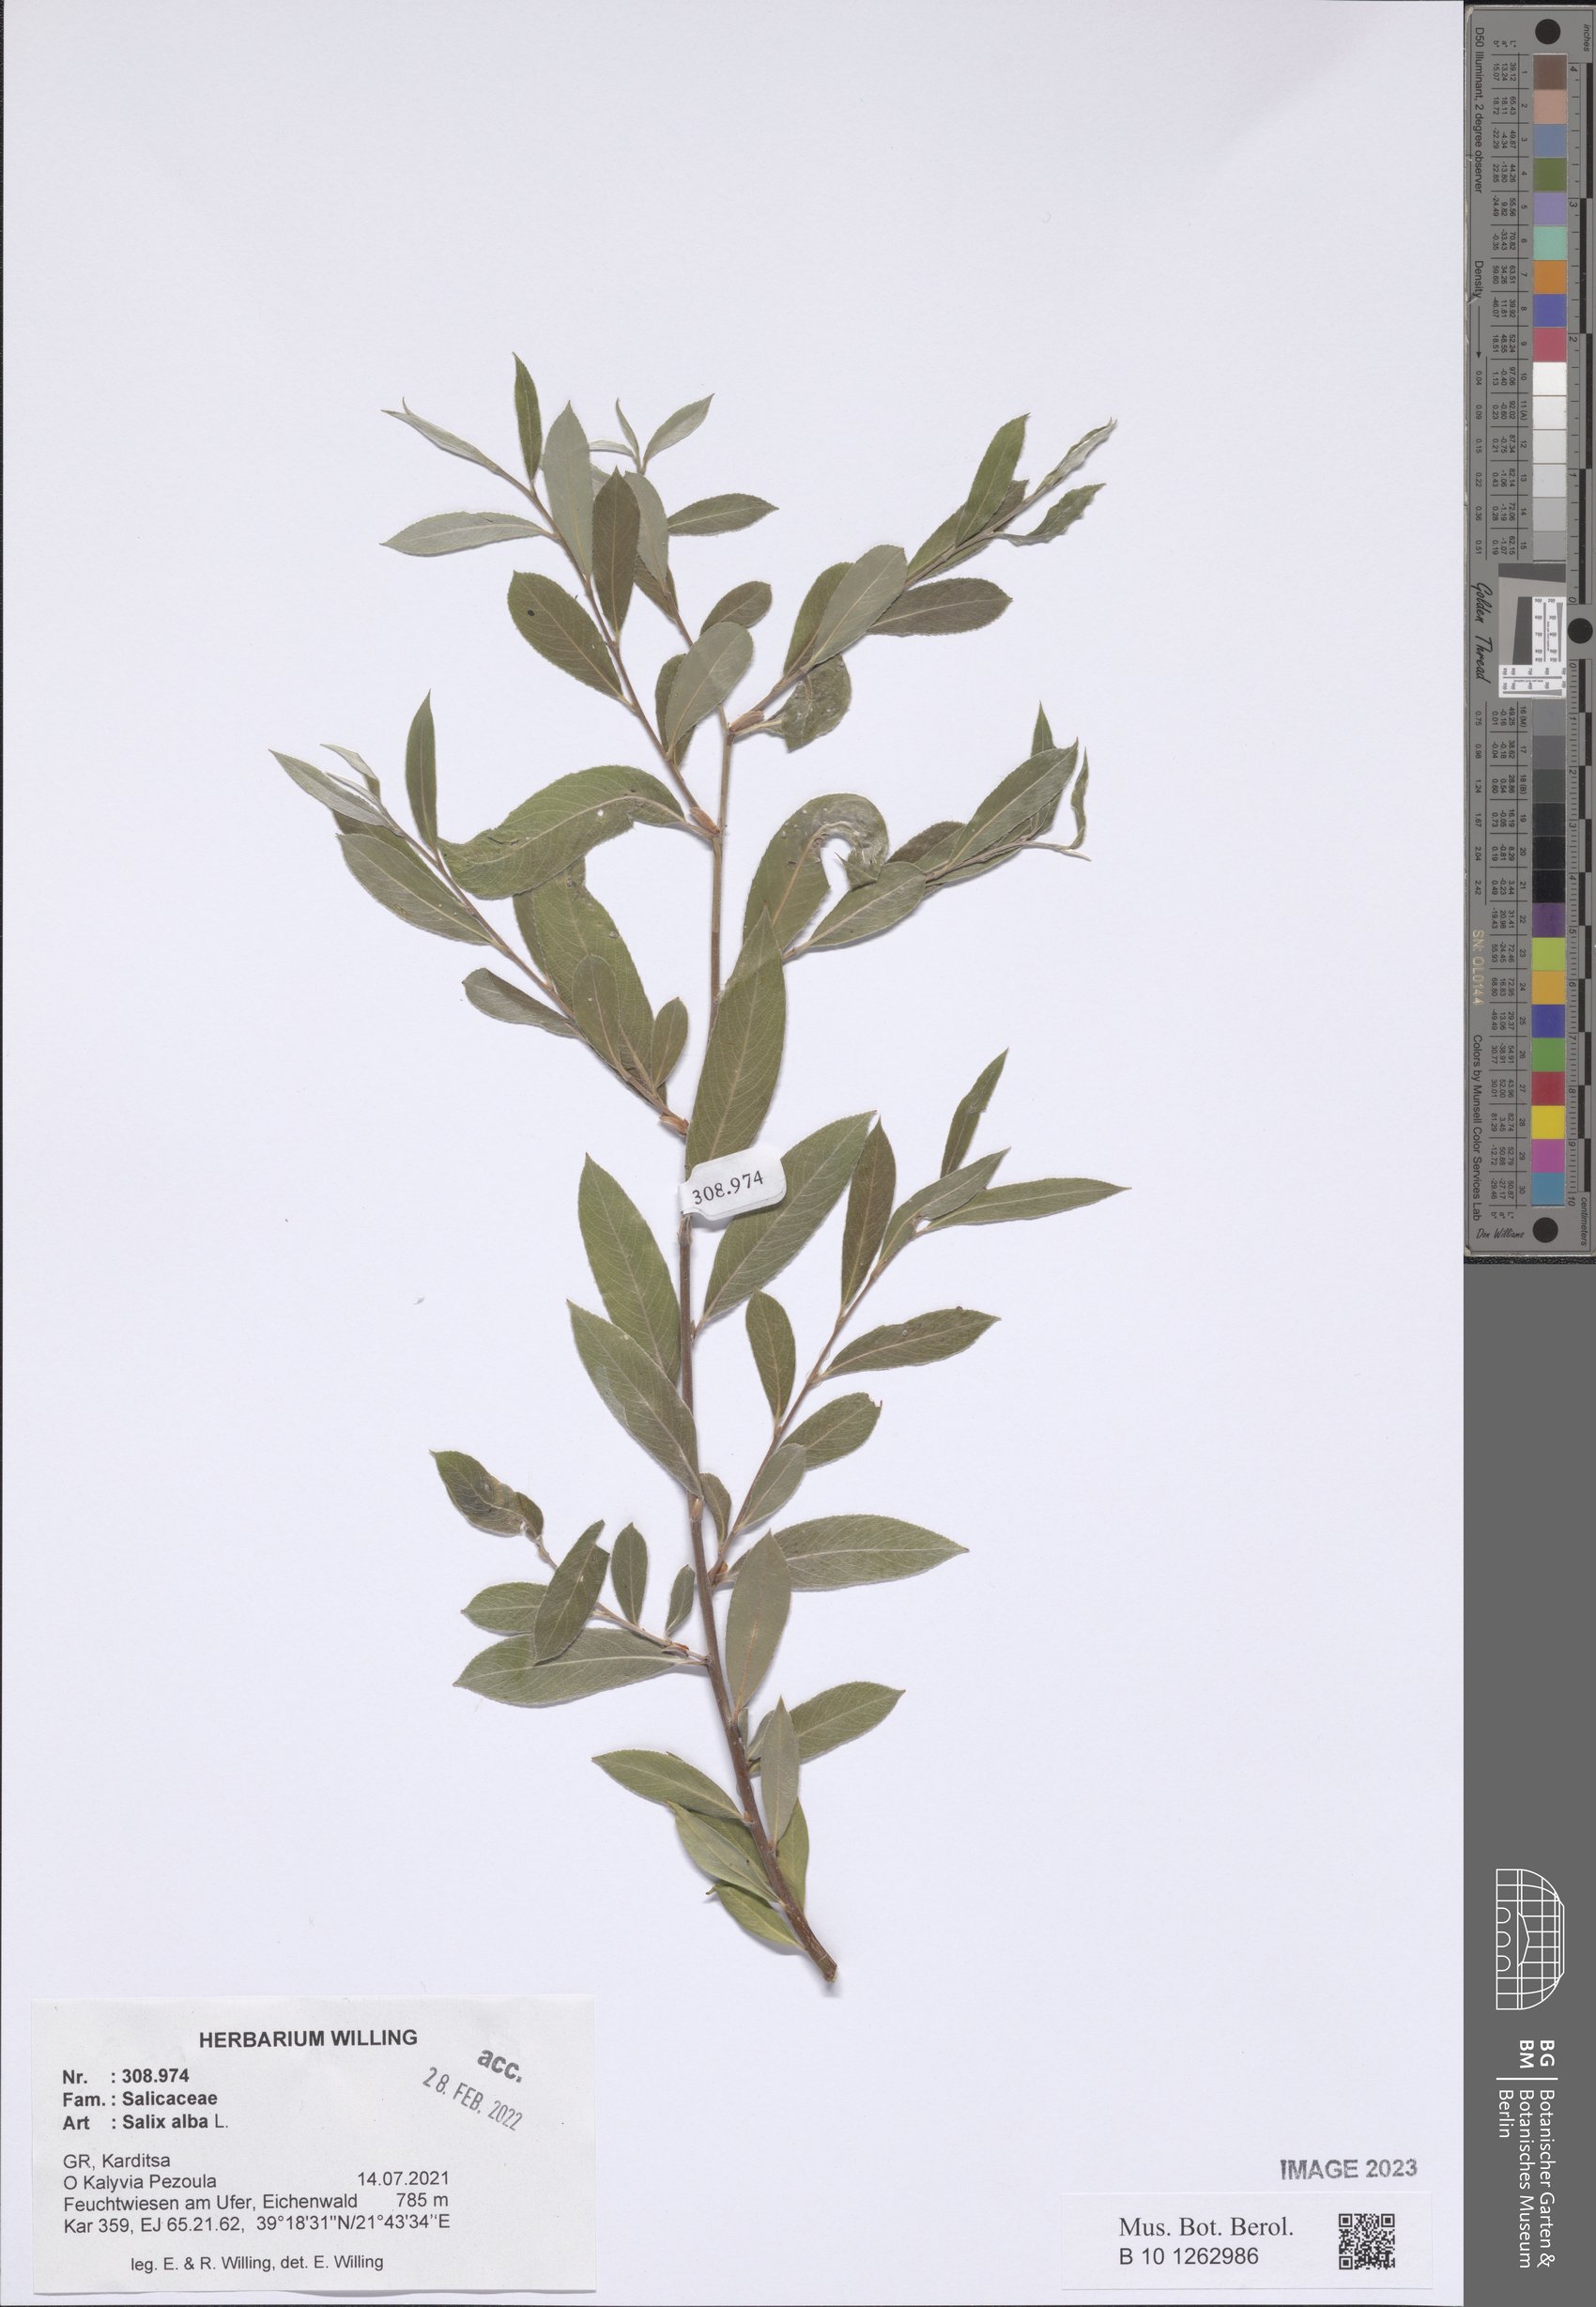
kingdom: Plantae
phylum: Tracheophyta
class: Magnoliopsida
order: Malpighiales
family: Salicaceae
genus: Salix
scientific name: Salix alba
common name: White willow
